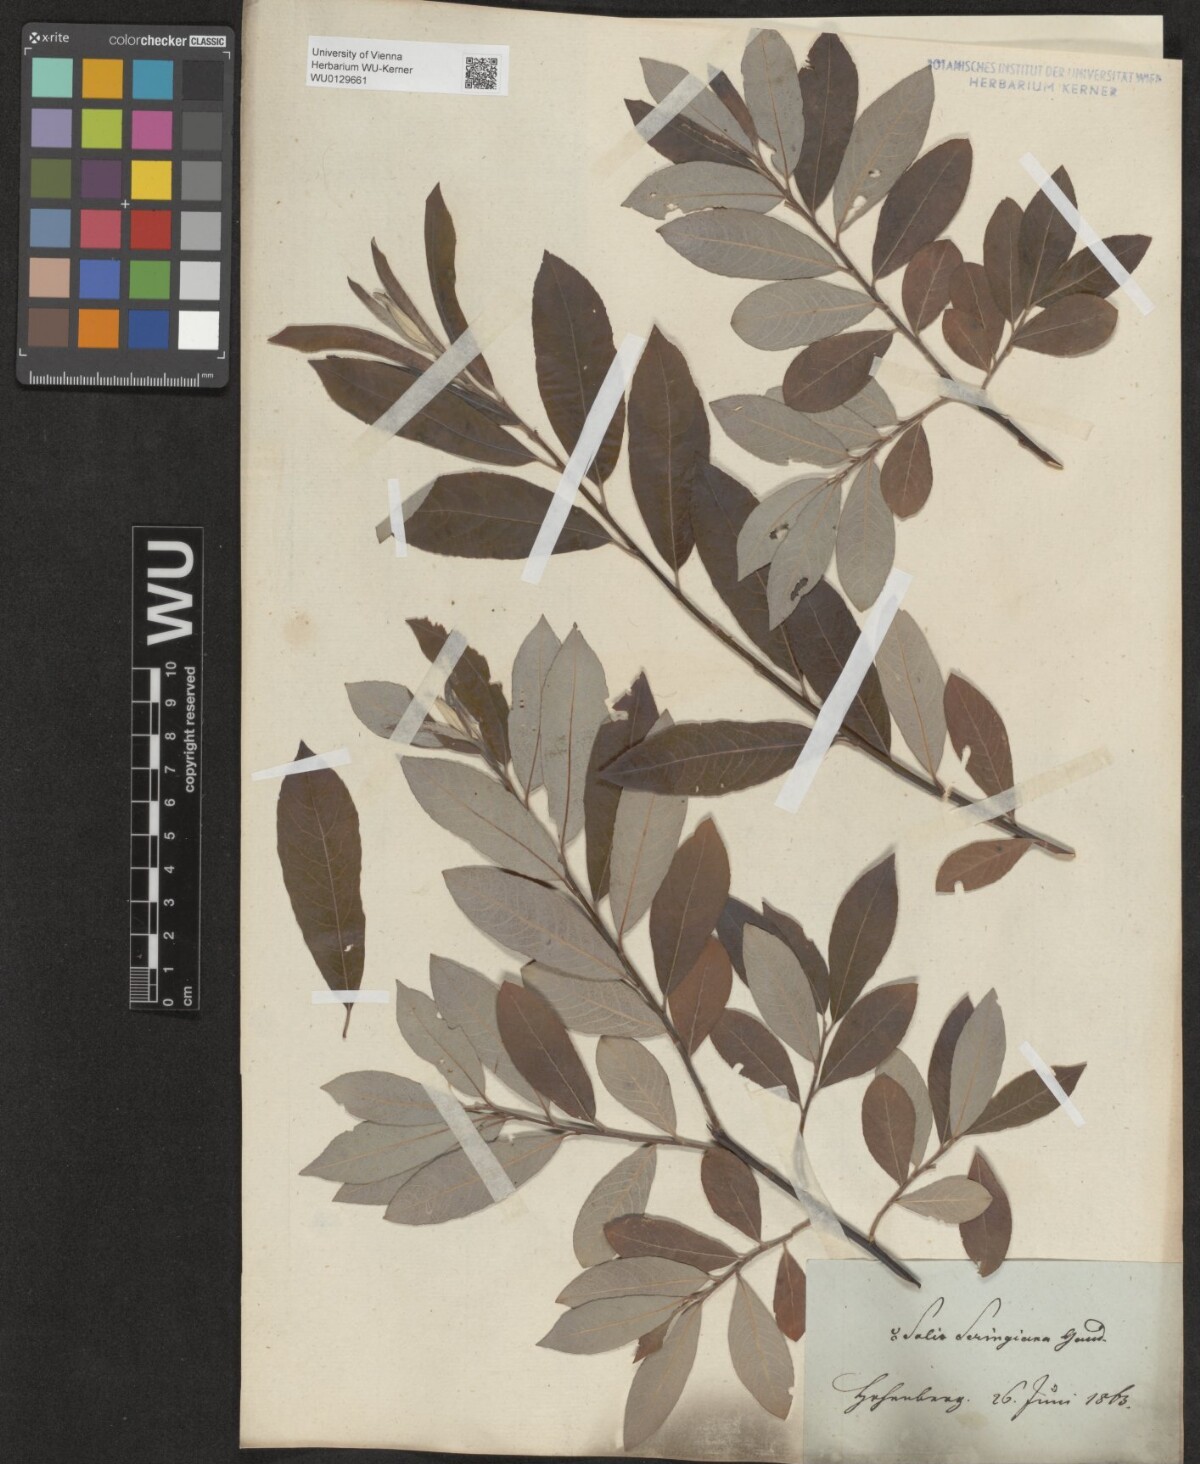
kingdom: Plantae
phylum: Tracheophyta
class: Magnoliopsida
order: Malpighiales
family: Salicaceae
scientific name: Salicaceae
